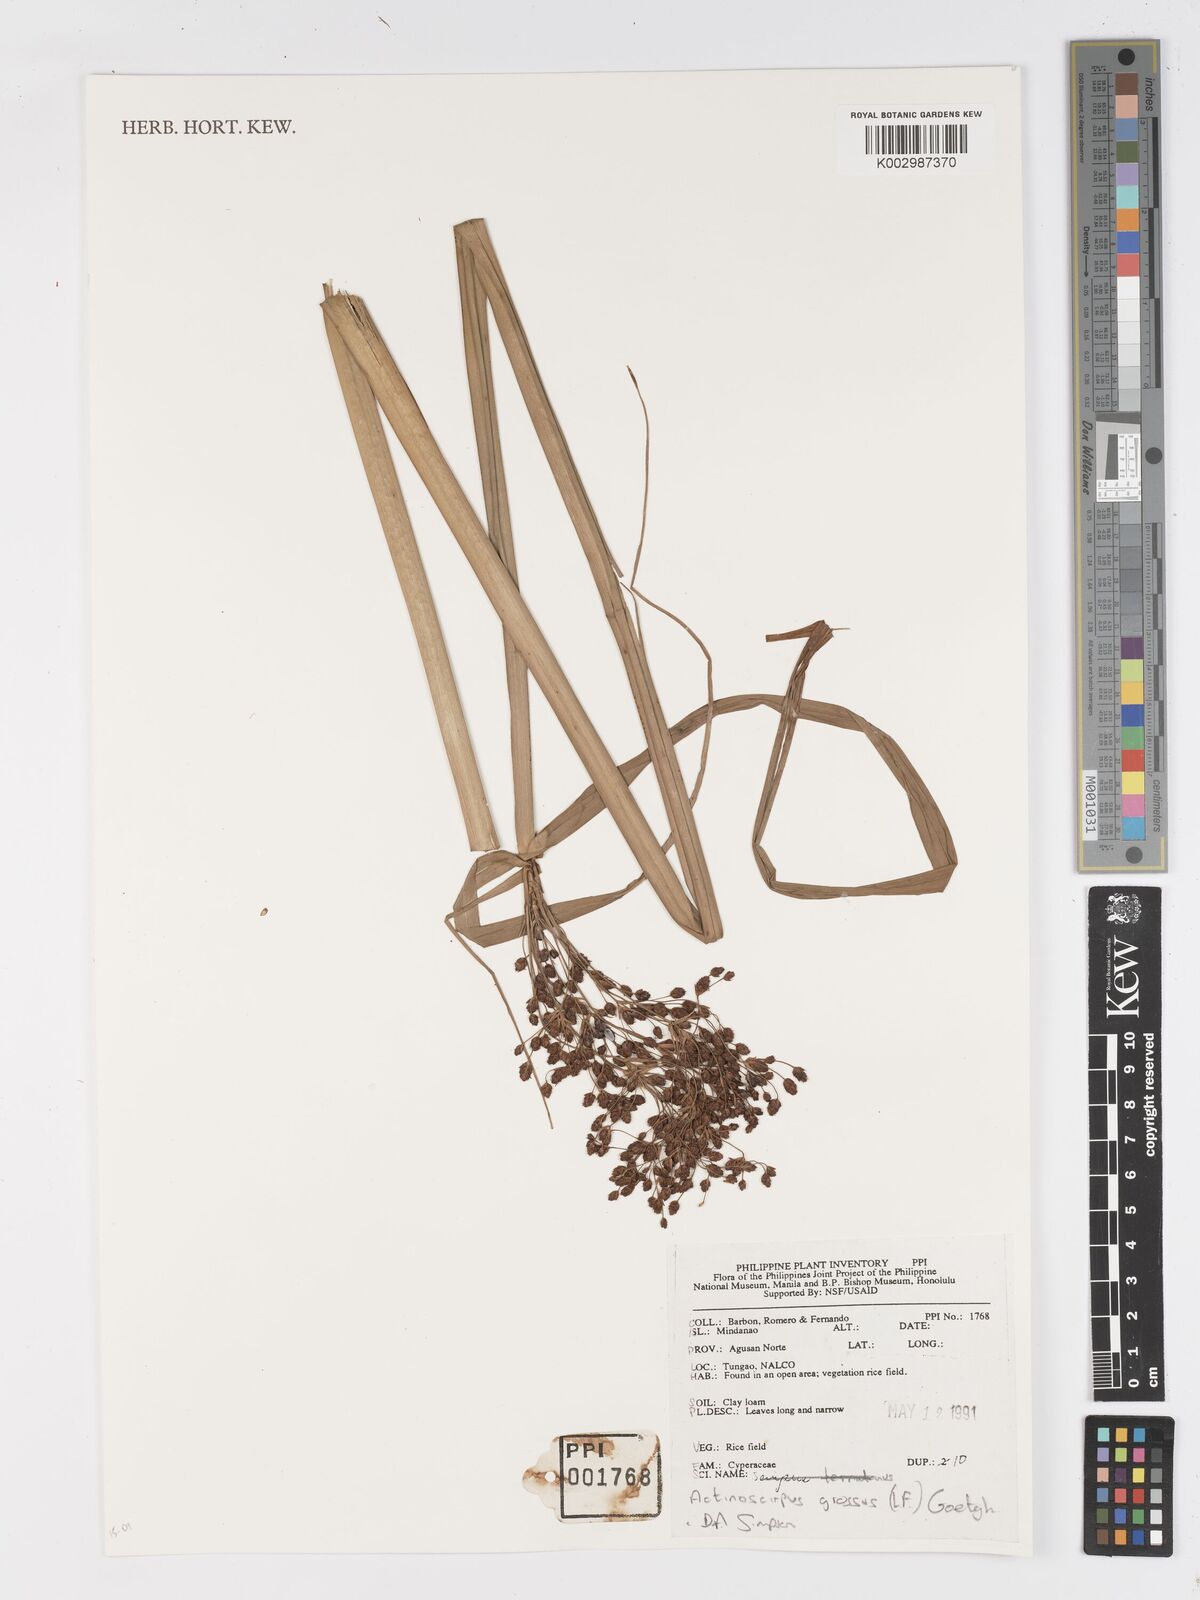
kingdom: Plantae
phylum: Tracheophyta
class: Liliopsida
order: Poales
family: Cyperaceae
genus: Actinoscirpus
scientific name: Actinoscirpus grossus
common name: Giant bur rush
